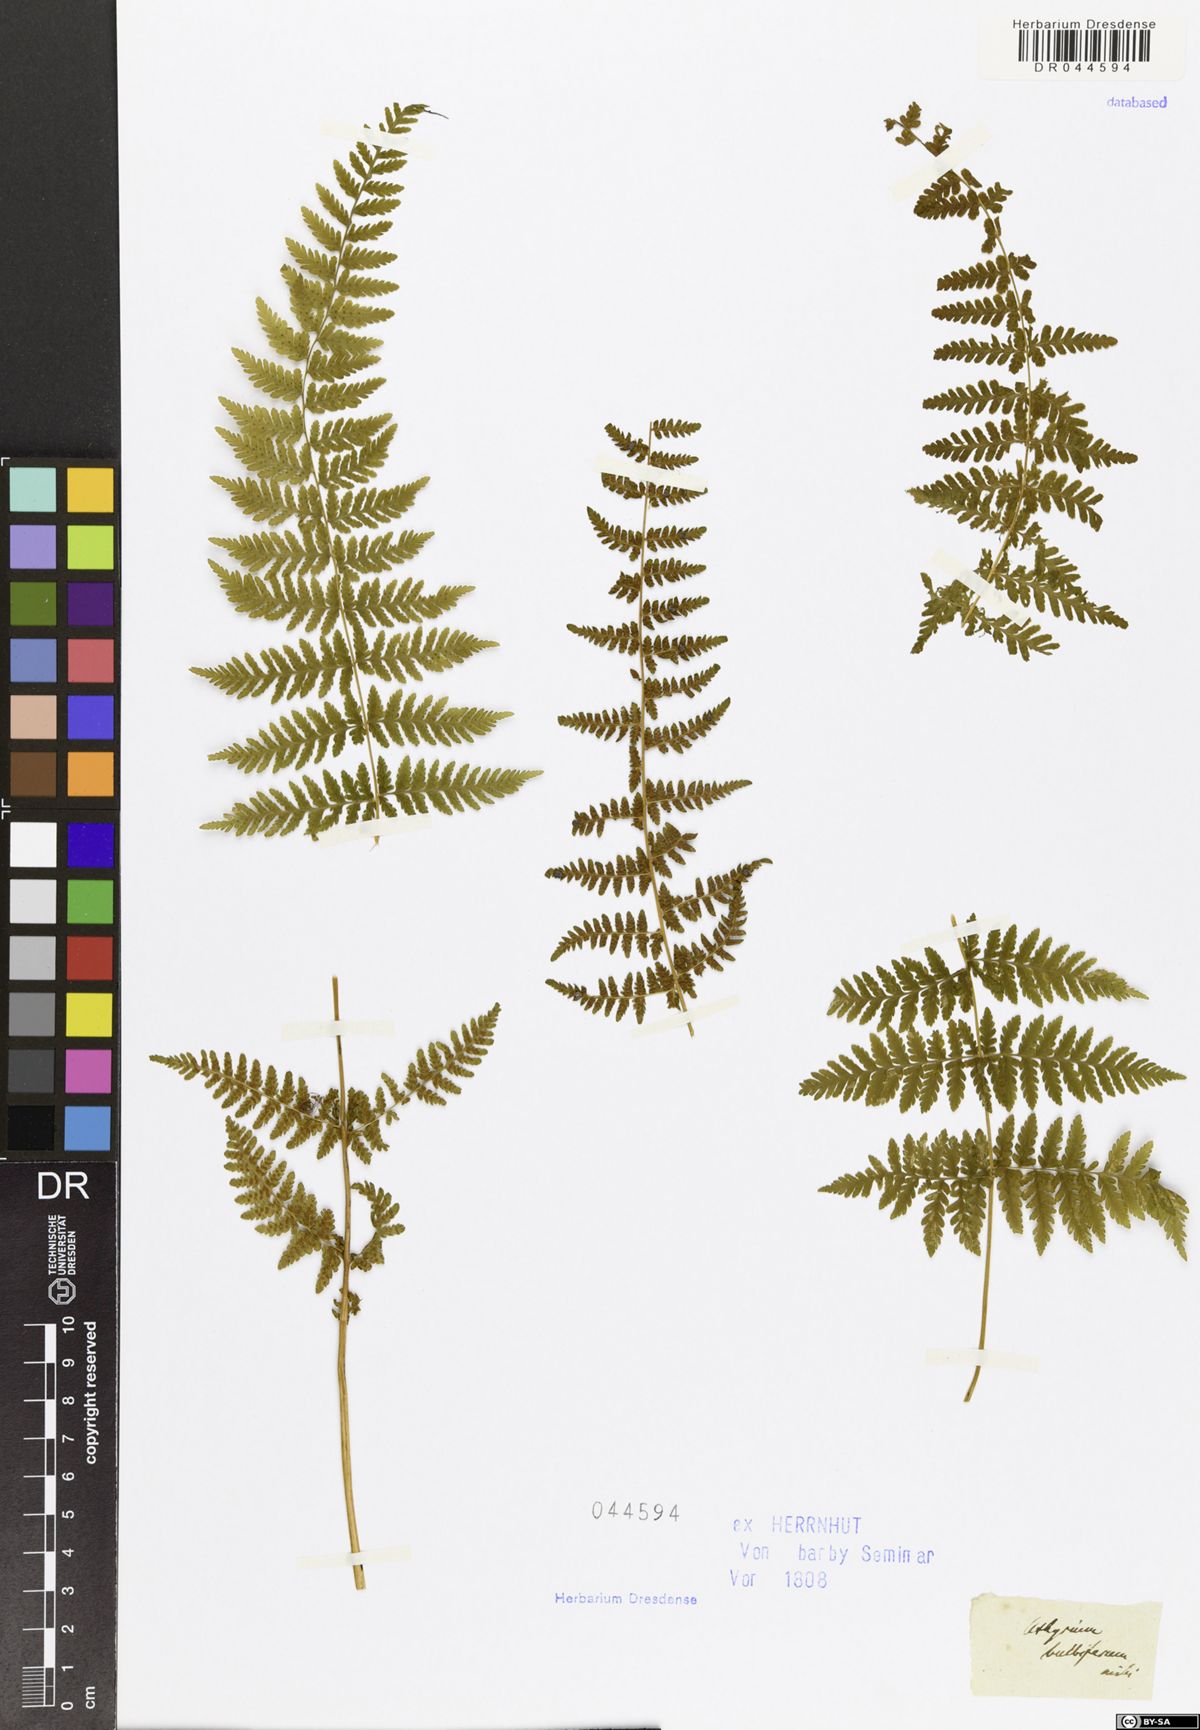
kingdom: Plantae
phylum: Tracheophyta
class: Polypodiopsida
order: Polypodiales
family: Cystopteridaceae
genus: Cystopteris
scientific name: Cystopteris bulbifera
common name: Bulblet bladder fern
